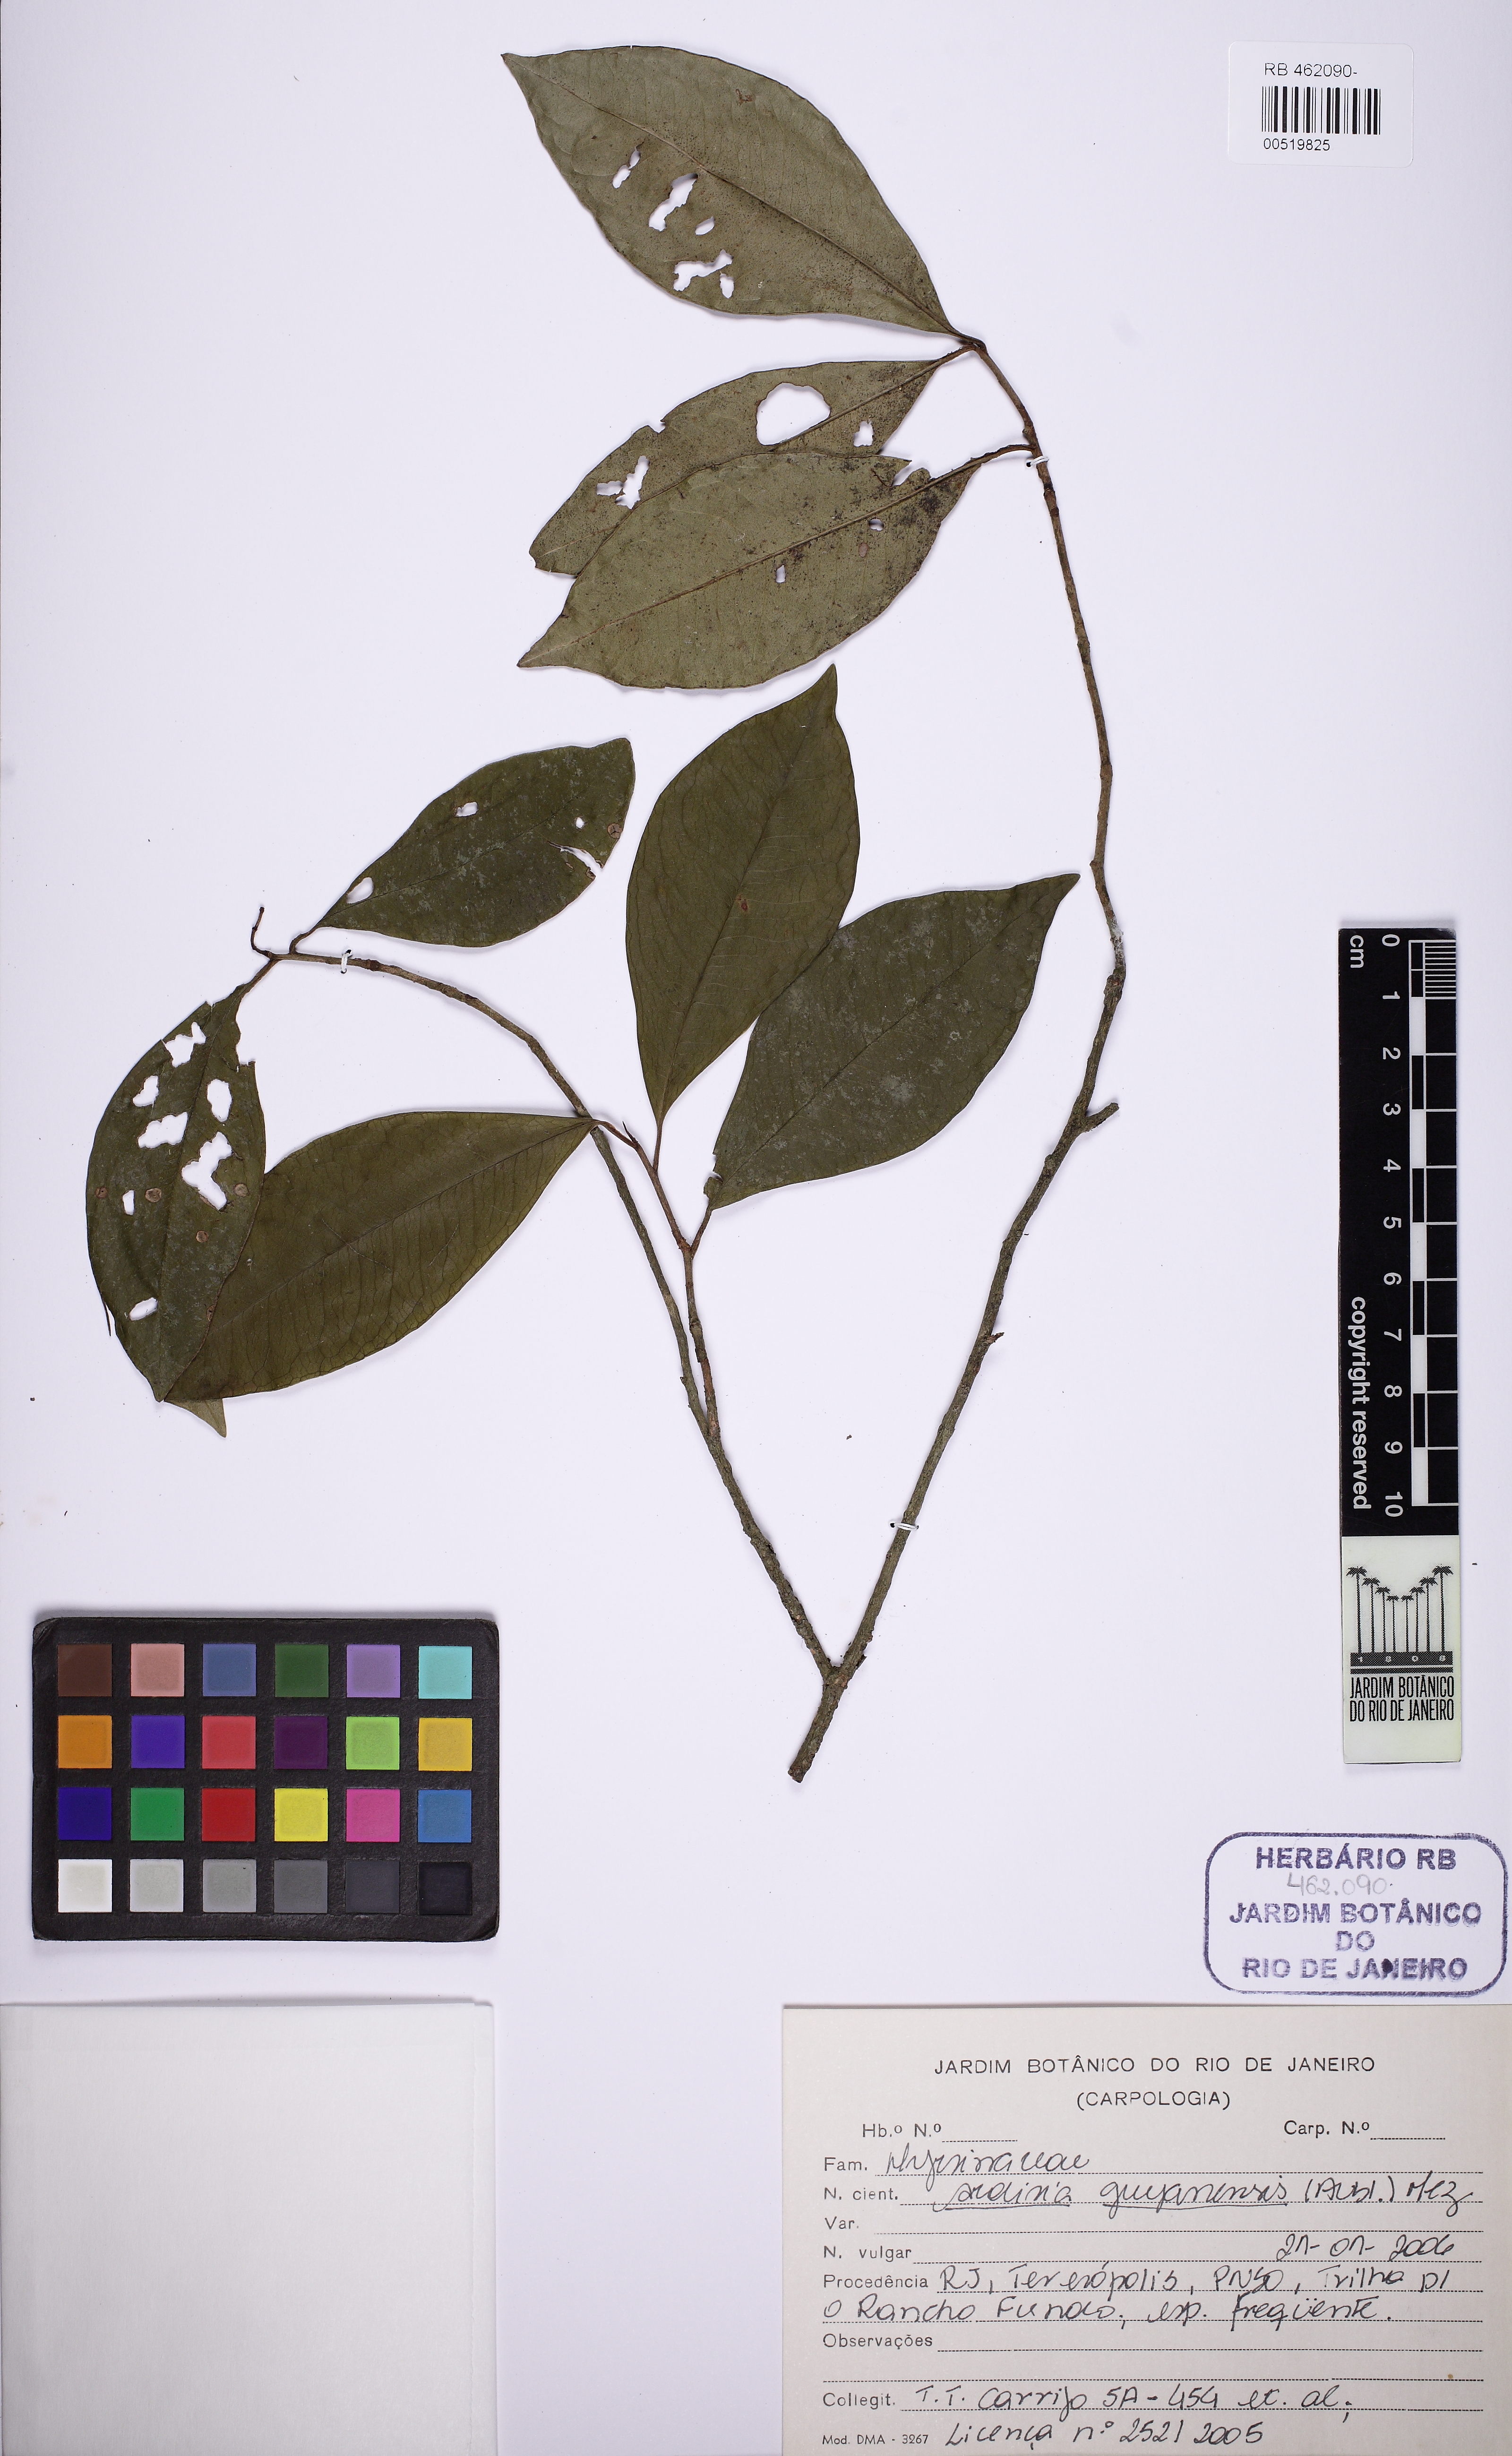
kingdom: Plantae
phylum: Tracheophyta
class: Magnoliopsida
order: Ericales
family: Primulaceae
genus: Stylogyne
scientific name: Stylogyne pauciflora
